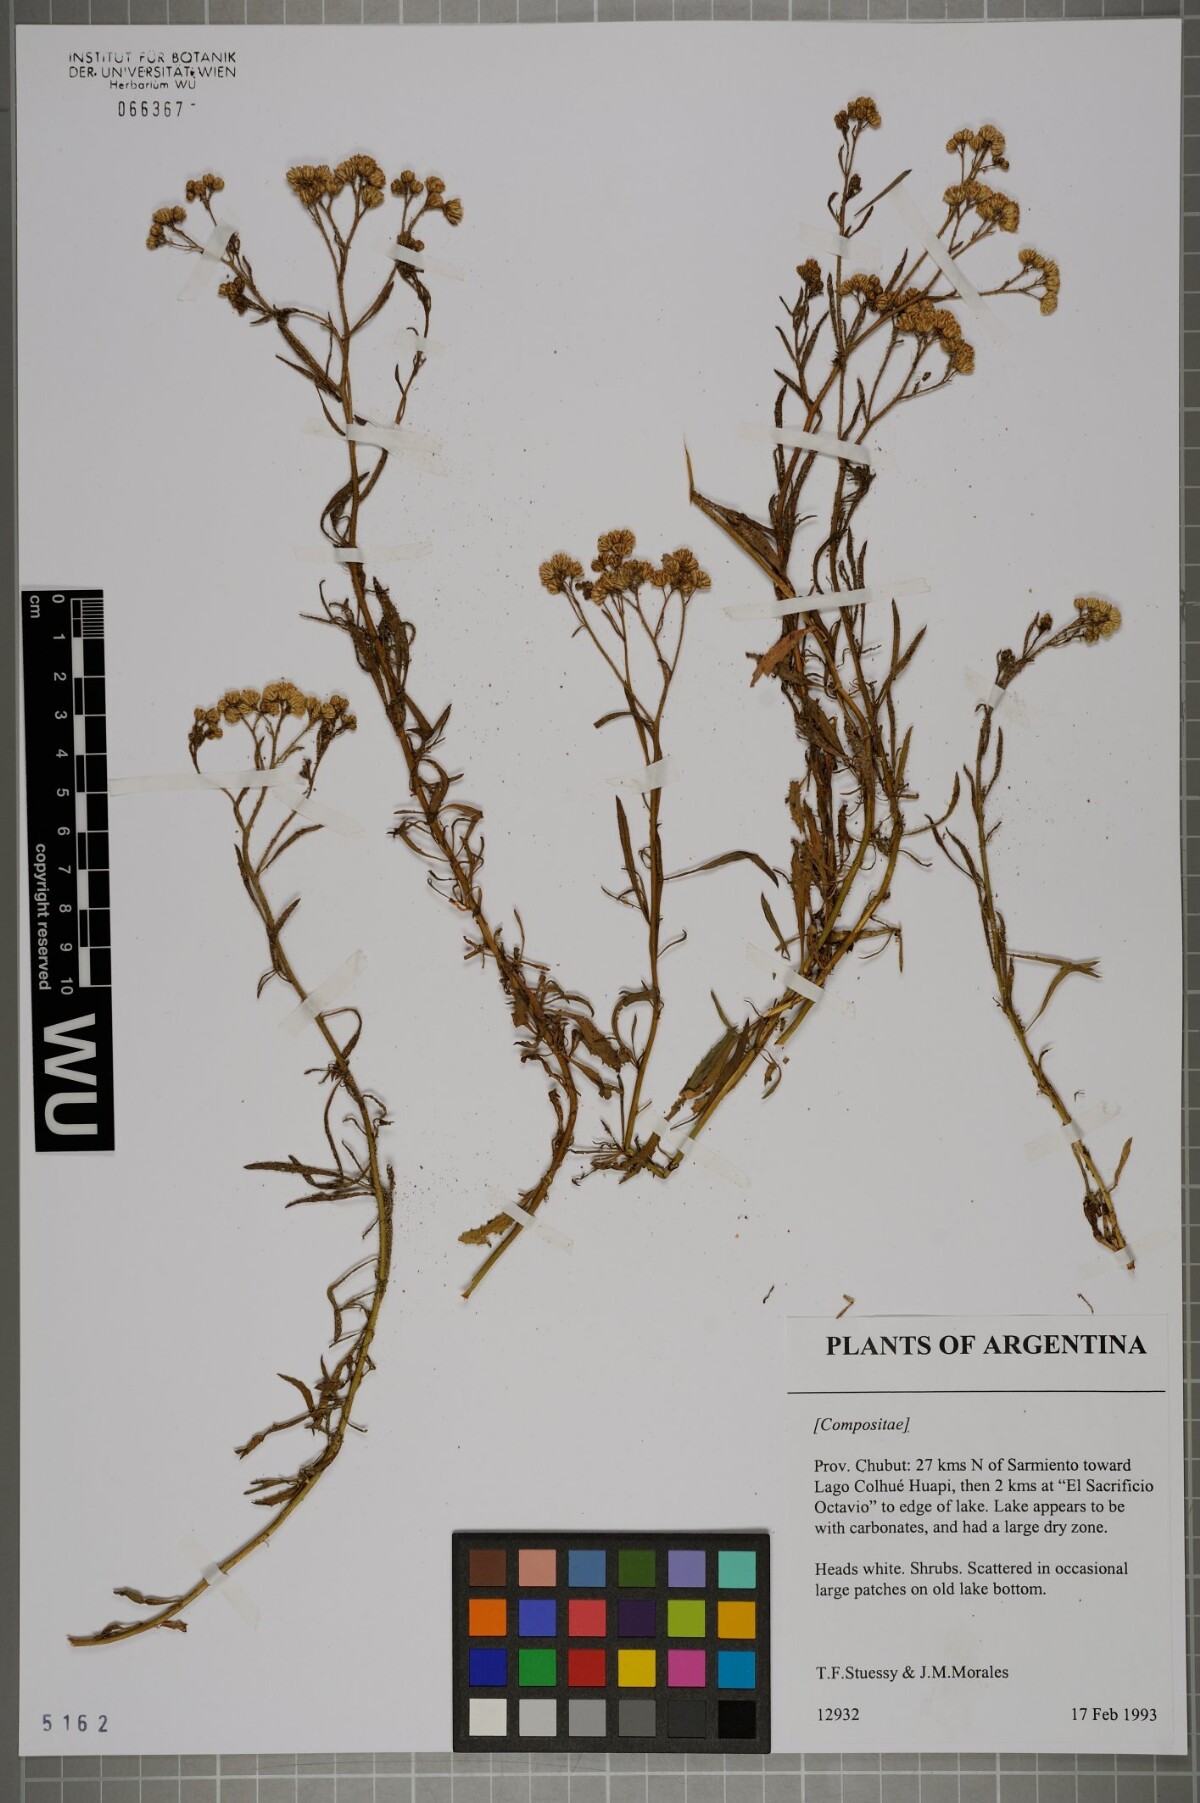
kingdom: Plantae
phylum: Tracheophyta
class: Magnoliopsida
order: Asterales
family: Asteraceae
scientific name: Asteraceae
